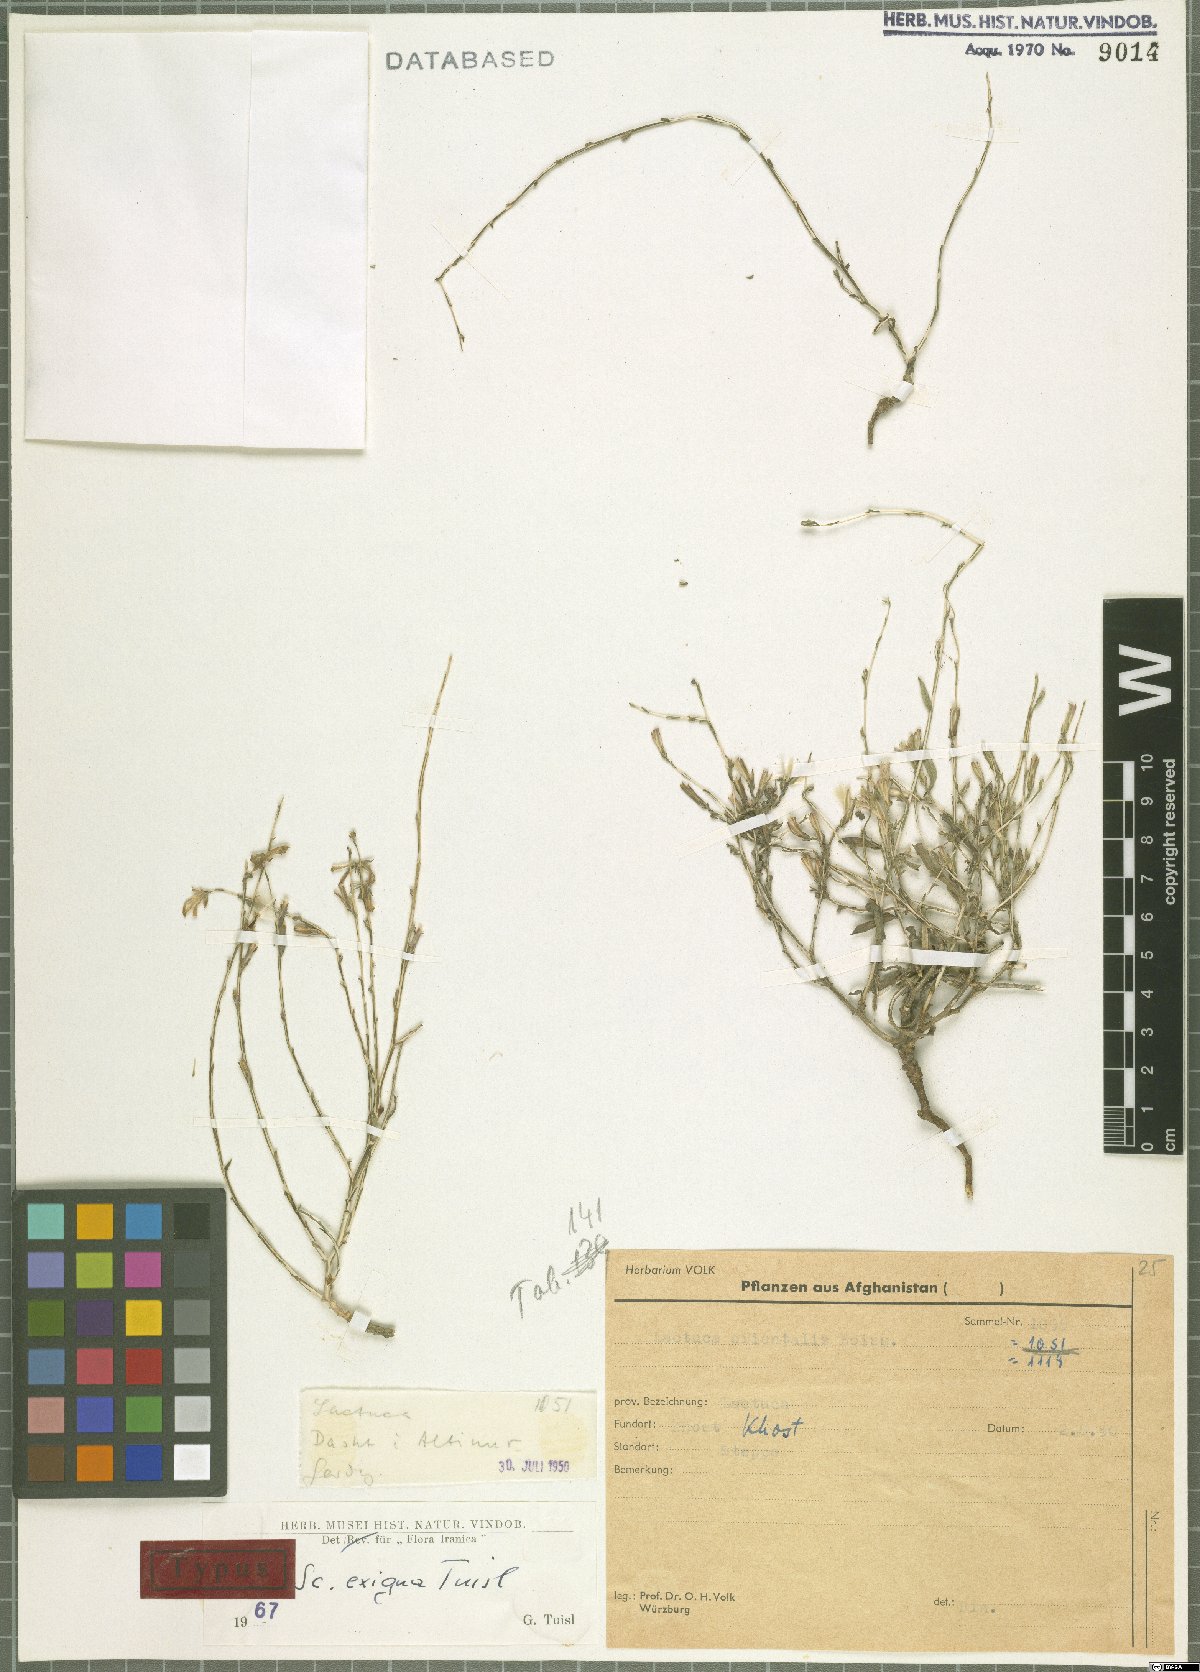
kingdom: Plantae
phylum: Tracheophyta
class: Magnoliopsida
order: Asterales
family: Asteraceae
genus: Lactuca
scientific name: Lactuca exigua
